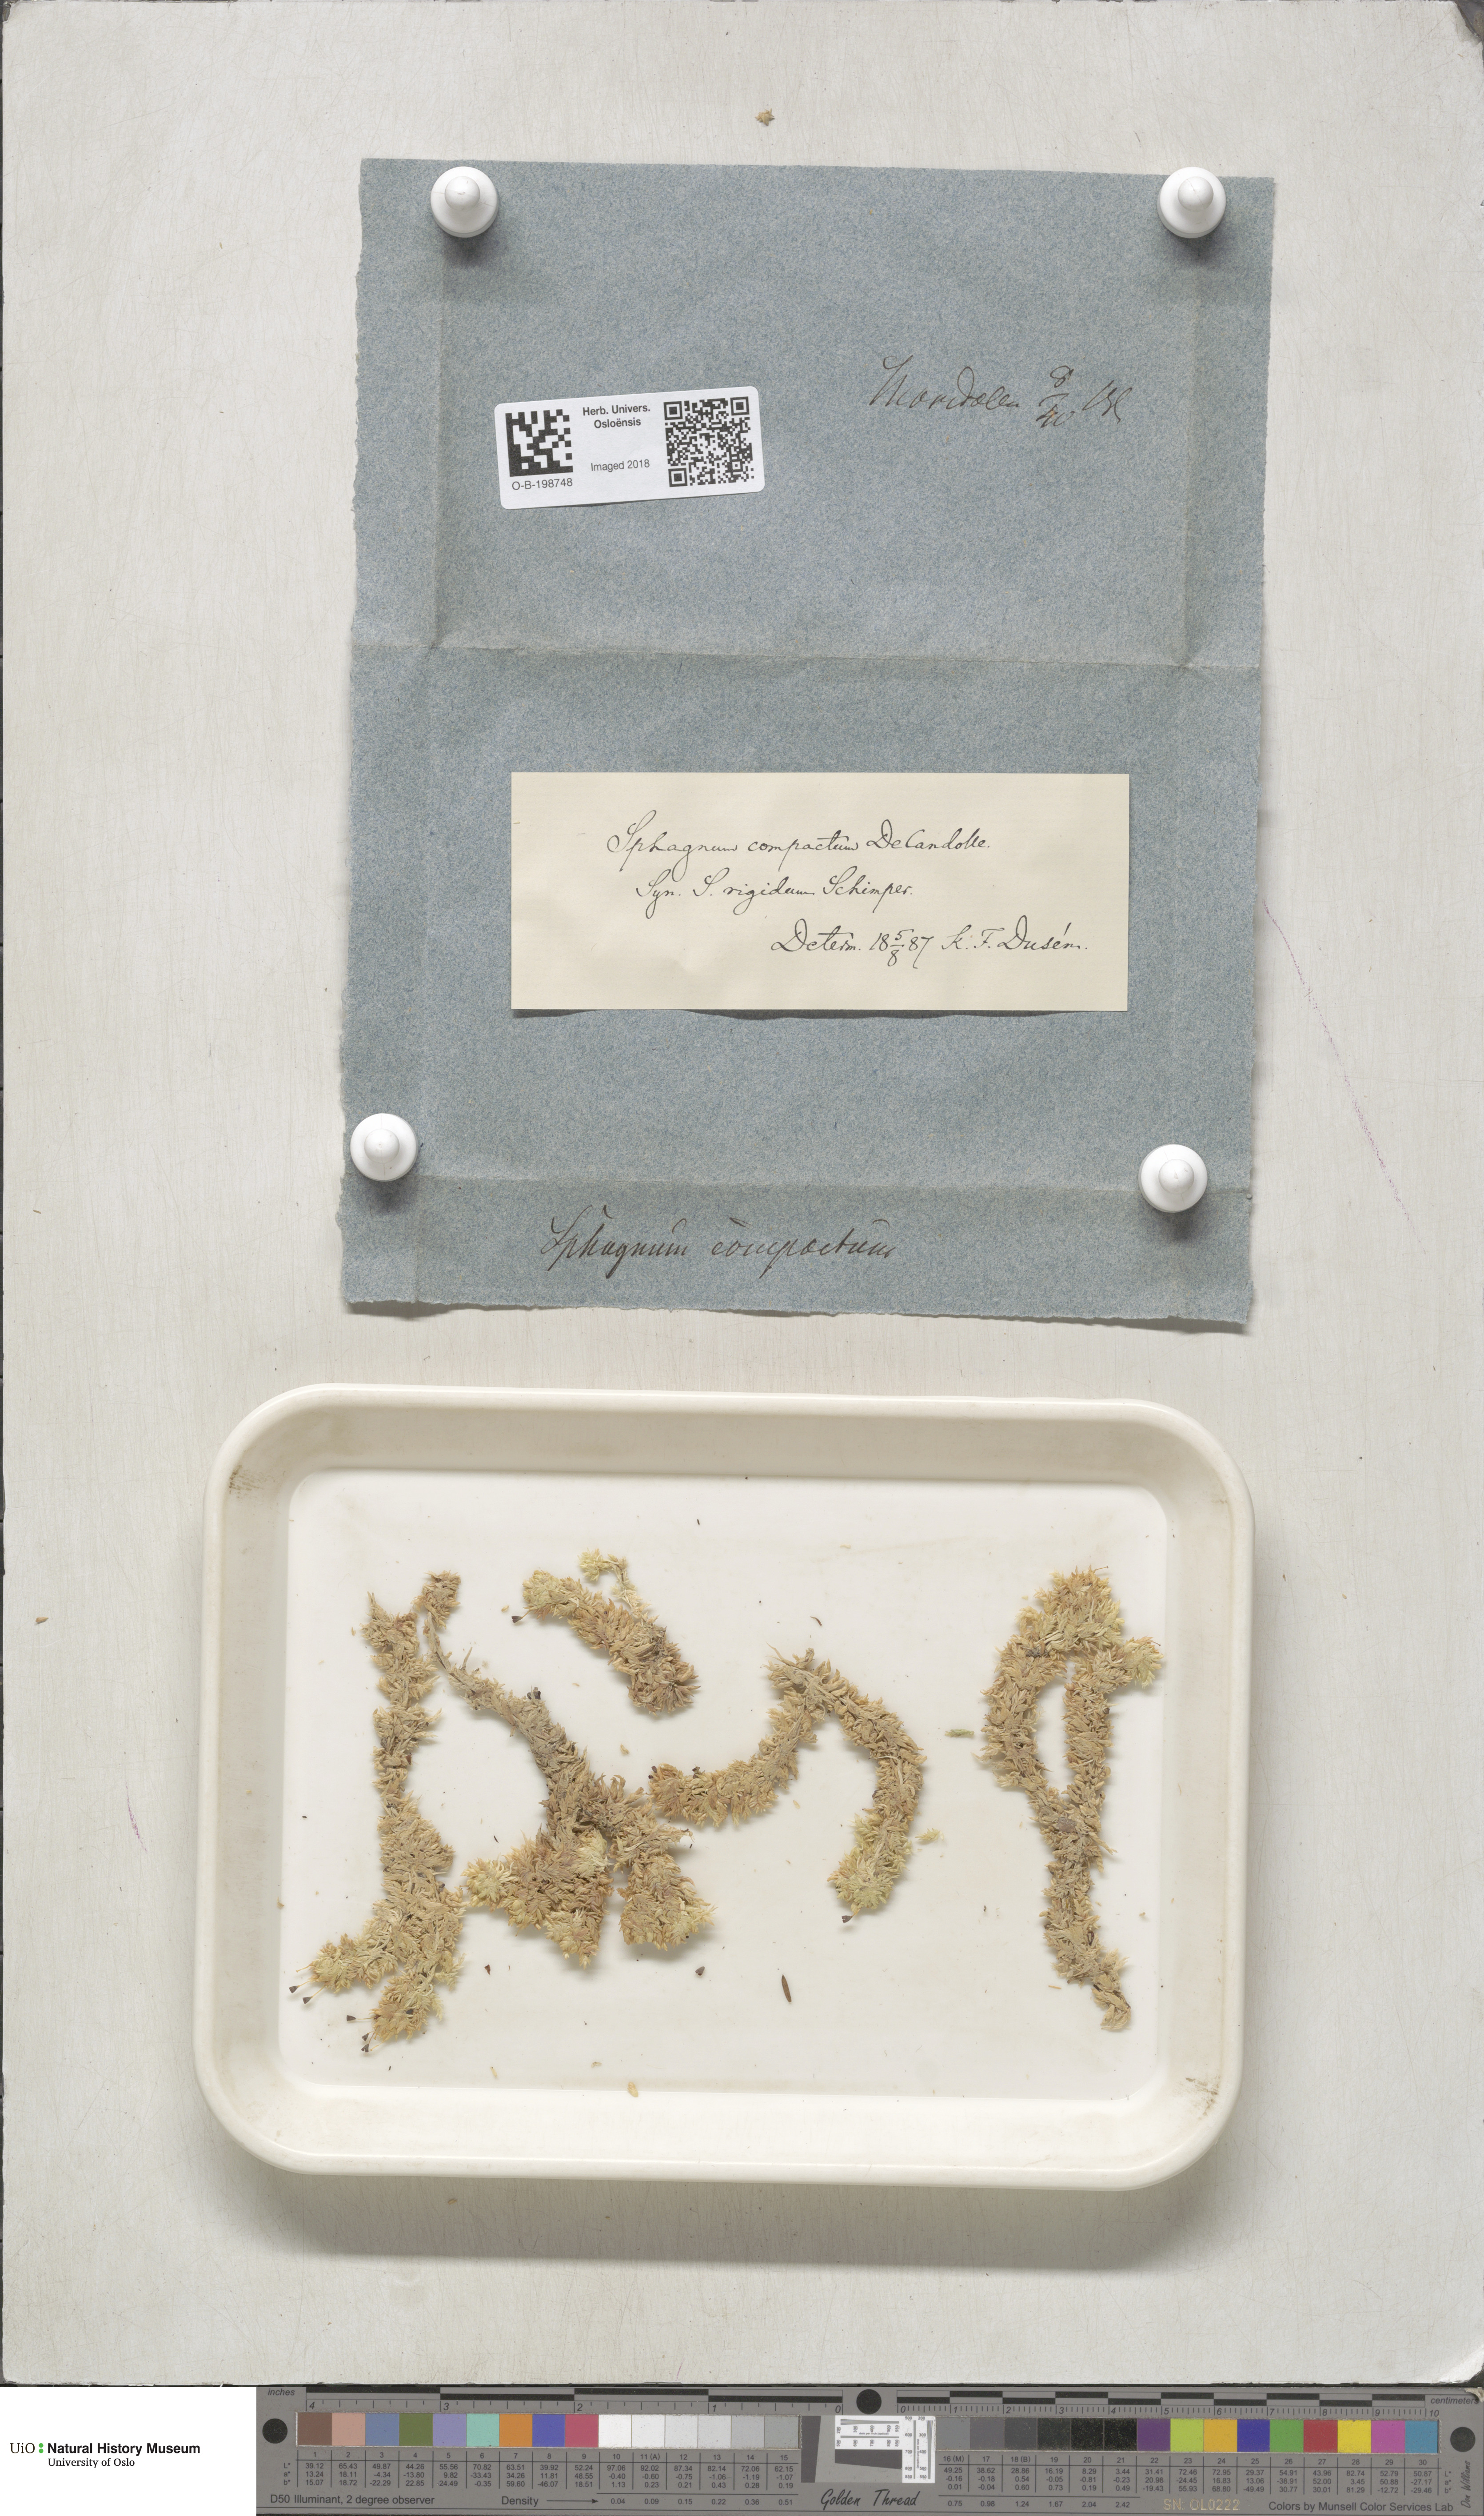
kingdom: Plantae
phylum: Bryophyta
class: Sphagnopsida
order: Sphagnales
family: Sphagnaceae
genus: Sphagnum
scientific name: Sphagnum compactum
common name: Compact peat moss
